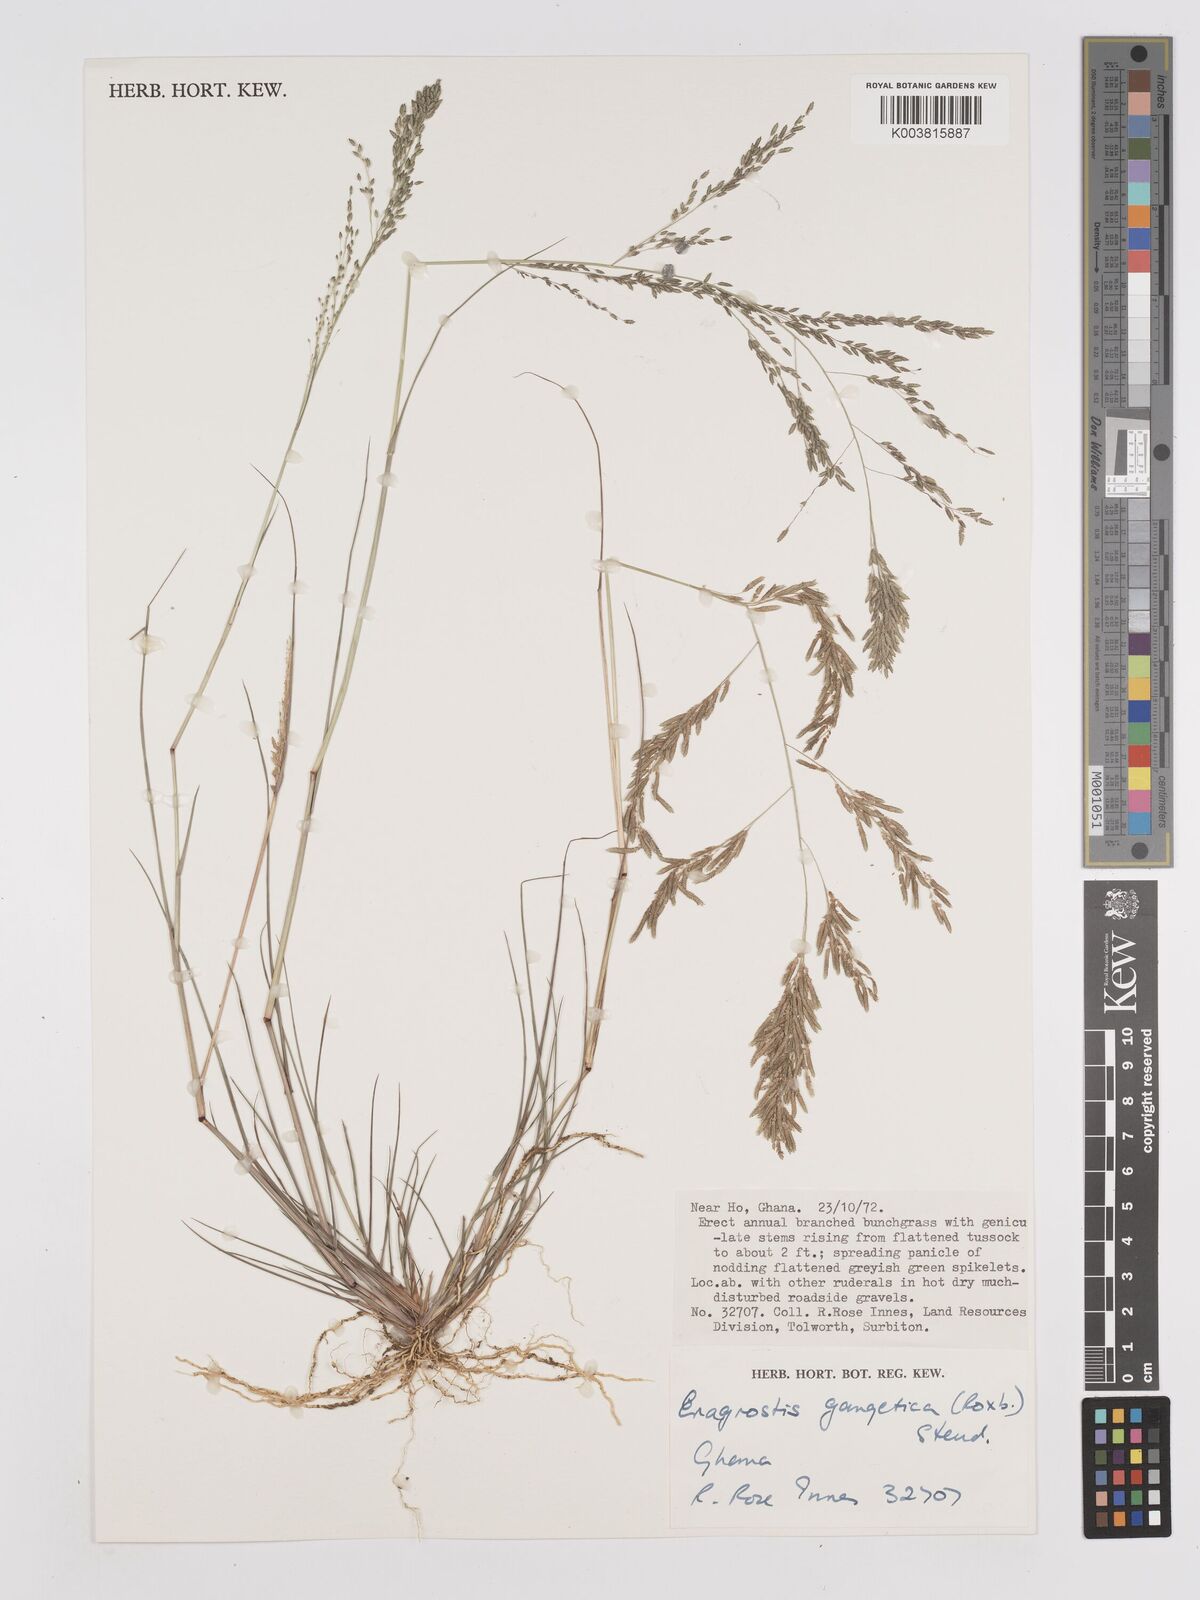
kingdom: Plantae
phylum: Tracheophyta
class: Liliopsida
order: Poales
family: Poaceae
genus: Eragrostis
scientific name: Eragrostis gangetica
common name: Slimflower lovegrass
